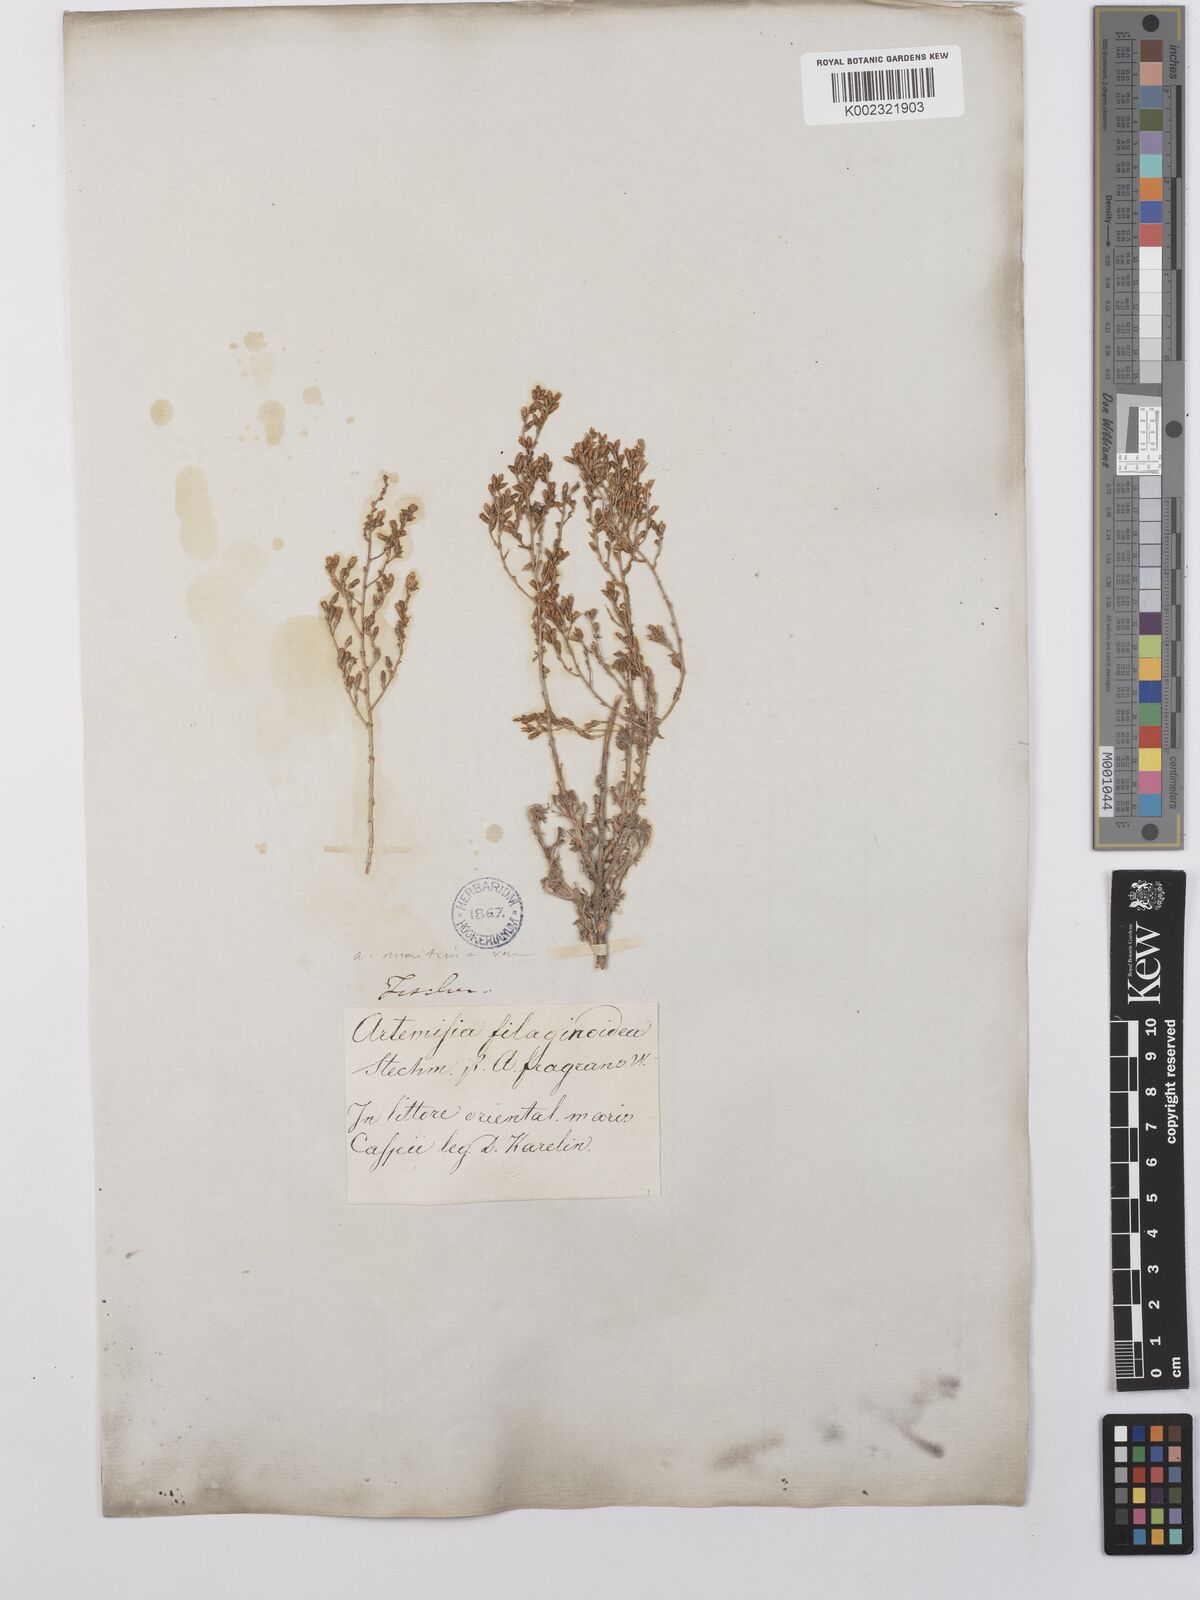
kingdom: Plantae
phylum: Tracheophyta
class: Magnoliopsida
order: Asterales
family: Asteraceae
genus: Artemisia
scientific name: Artemisia compacta
